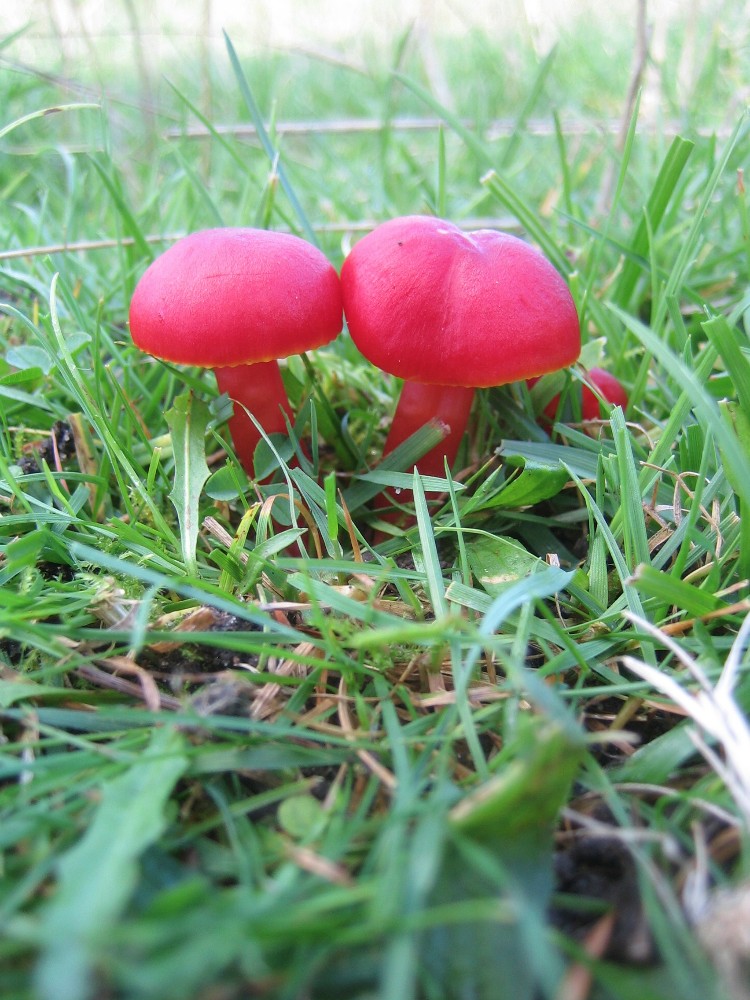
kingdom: Fungi
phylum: Basidiomycota
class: Agaricomycetes
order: Agaricales
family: Hygrophoraceae
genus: Hygrocybe
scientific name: Hygrocybe coccinea
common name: cinnober-vokshat
